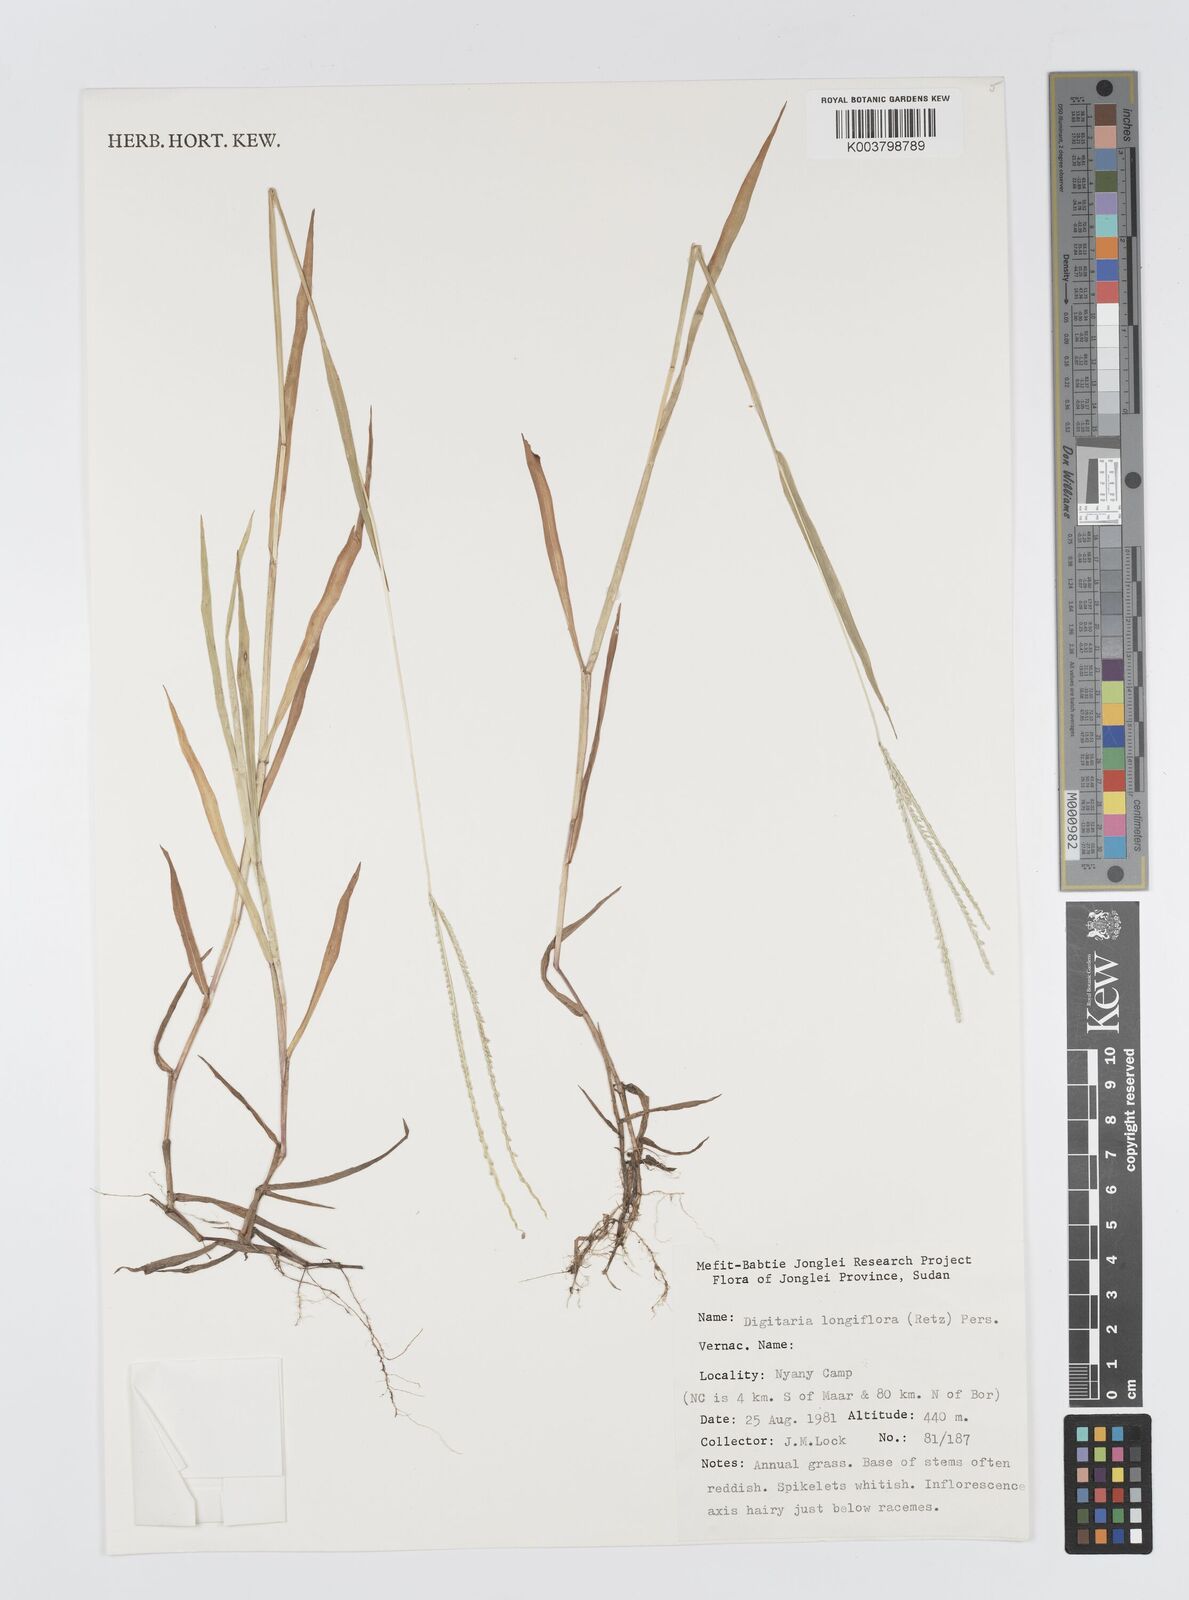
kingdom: Plantae
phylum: Tracheophyta
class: Liliopsida
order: Poales
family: Poaceae
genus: Digitaria
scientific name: Digitaria longiflora
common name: Wire crabgrass
